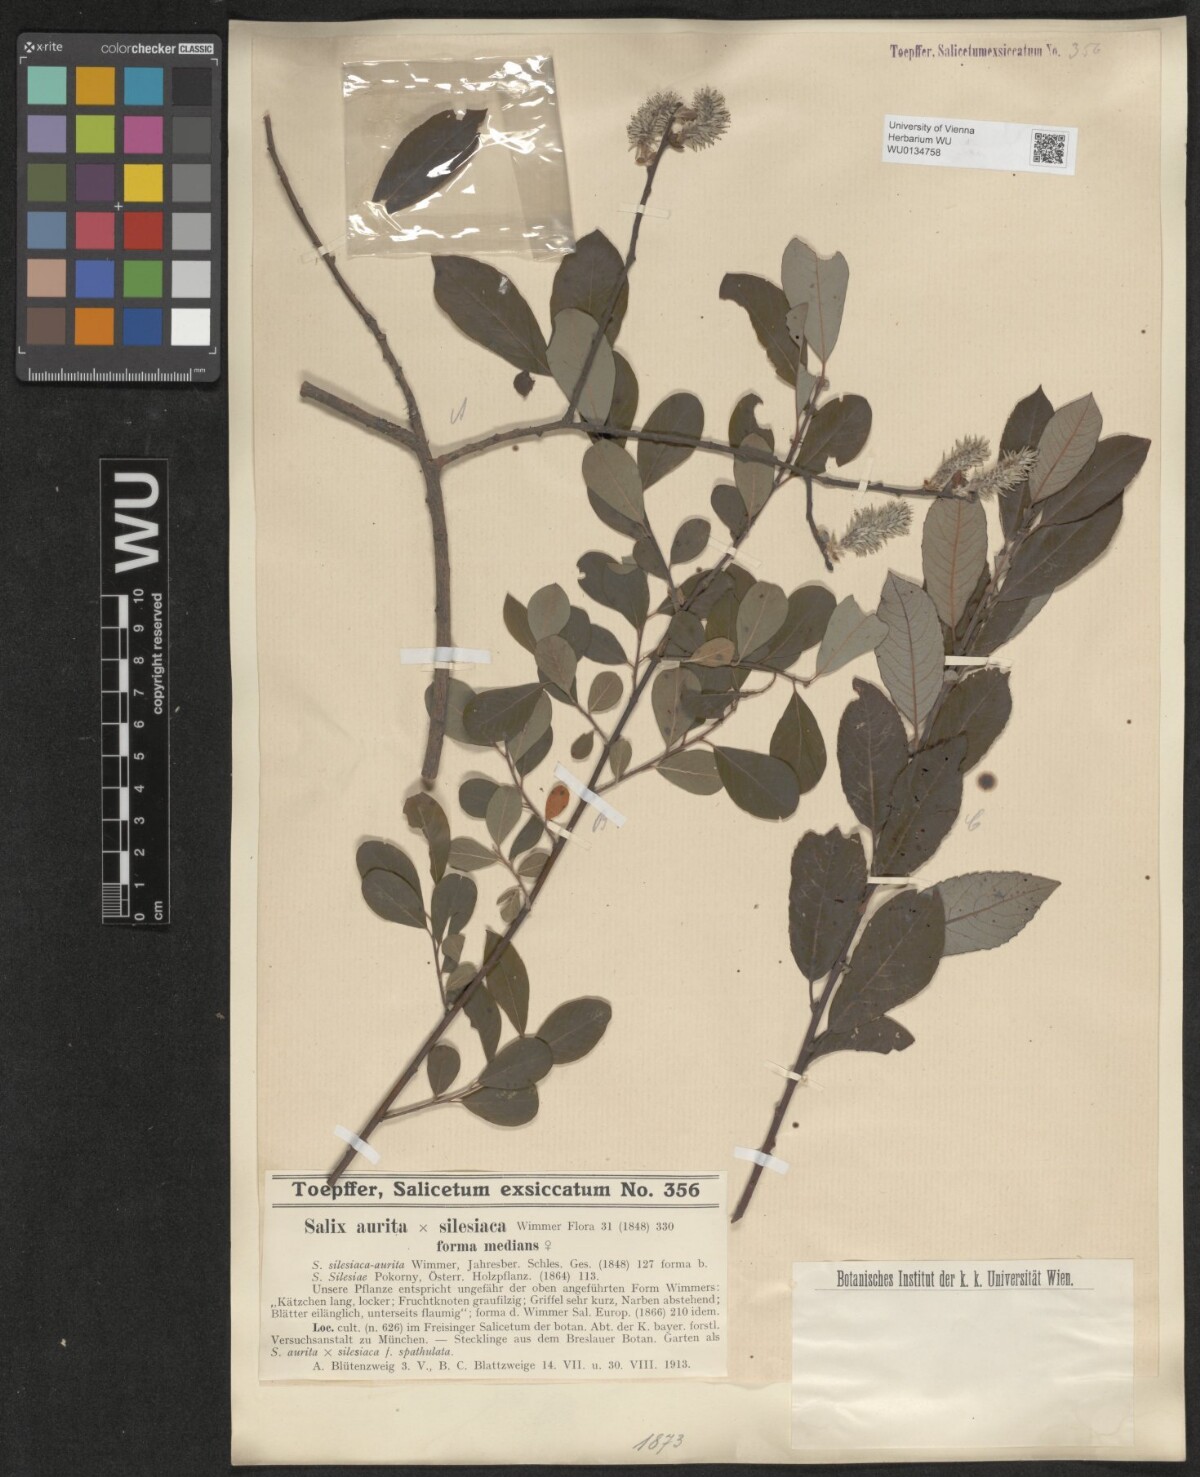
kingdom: Plantae
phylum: Tracheophyta
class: Magnoliopsida
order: Malpighiales
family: Salicaceae
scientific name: Salicaceae
